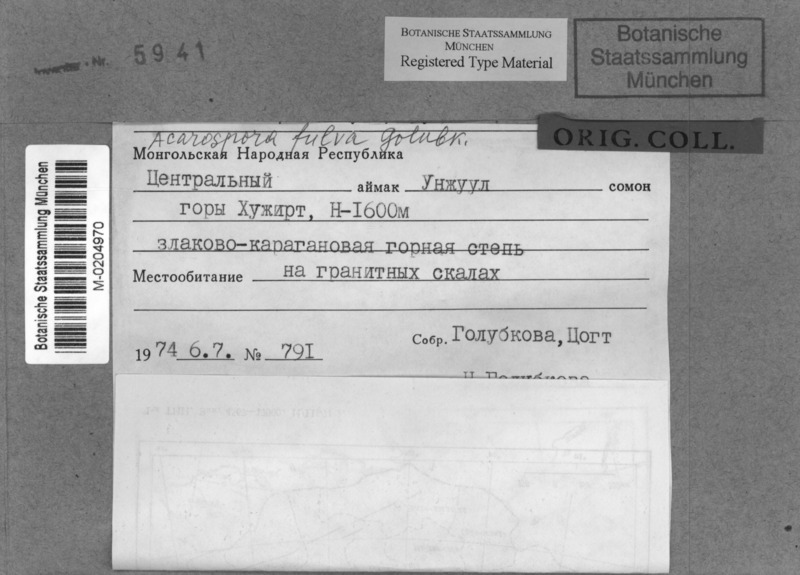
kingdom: Fungi
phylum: Ascomycota
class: Lecanoromycetes
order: Acarosporales
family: Acarosporaceae
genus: Acarospora
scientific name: Acarospora fulva
